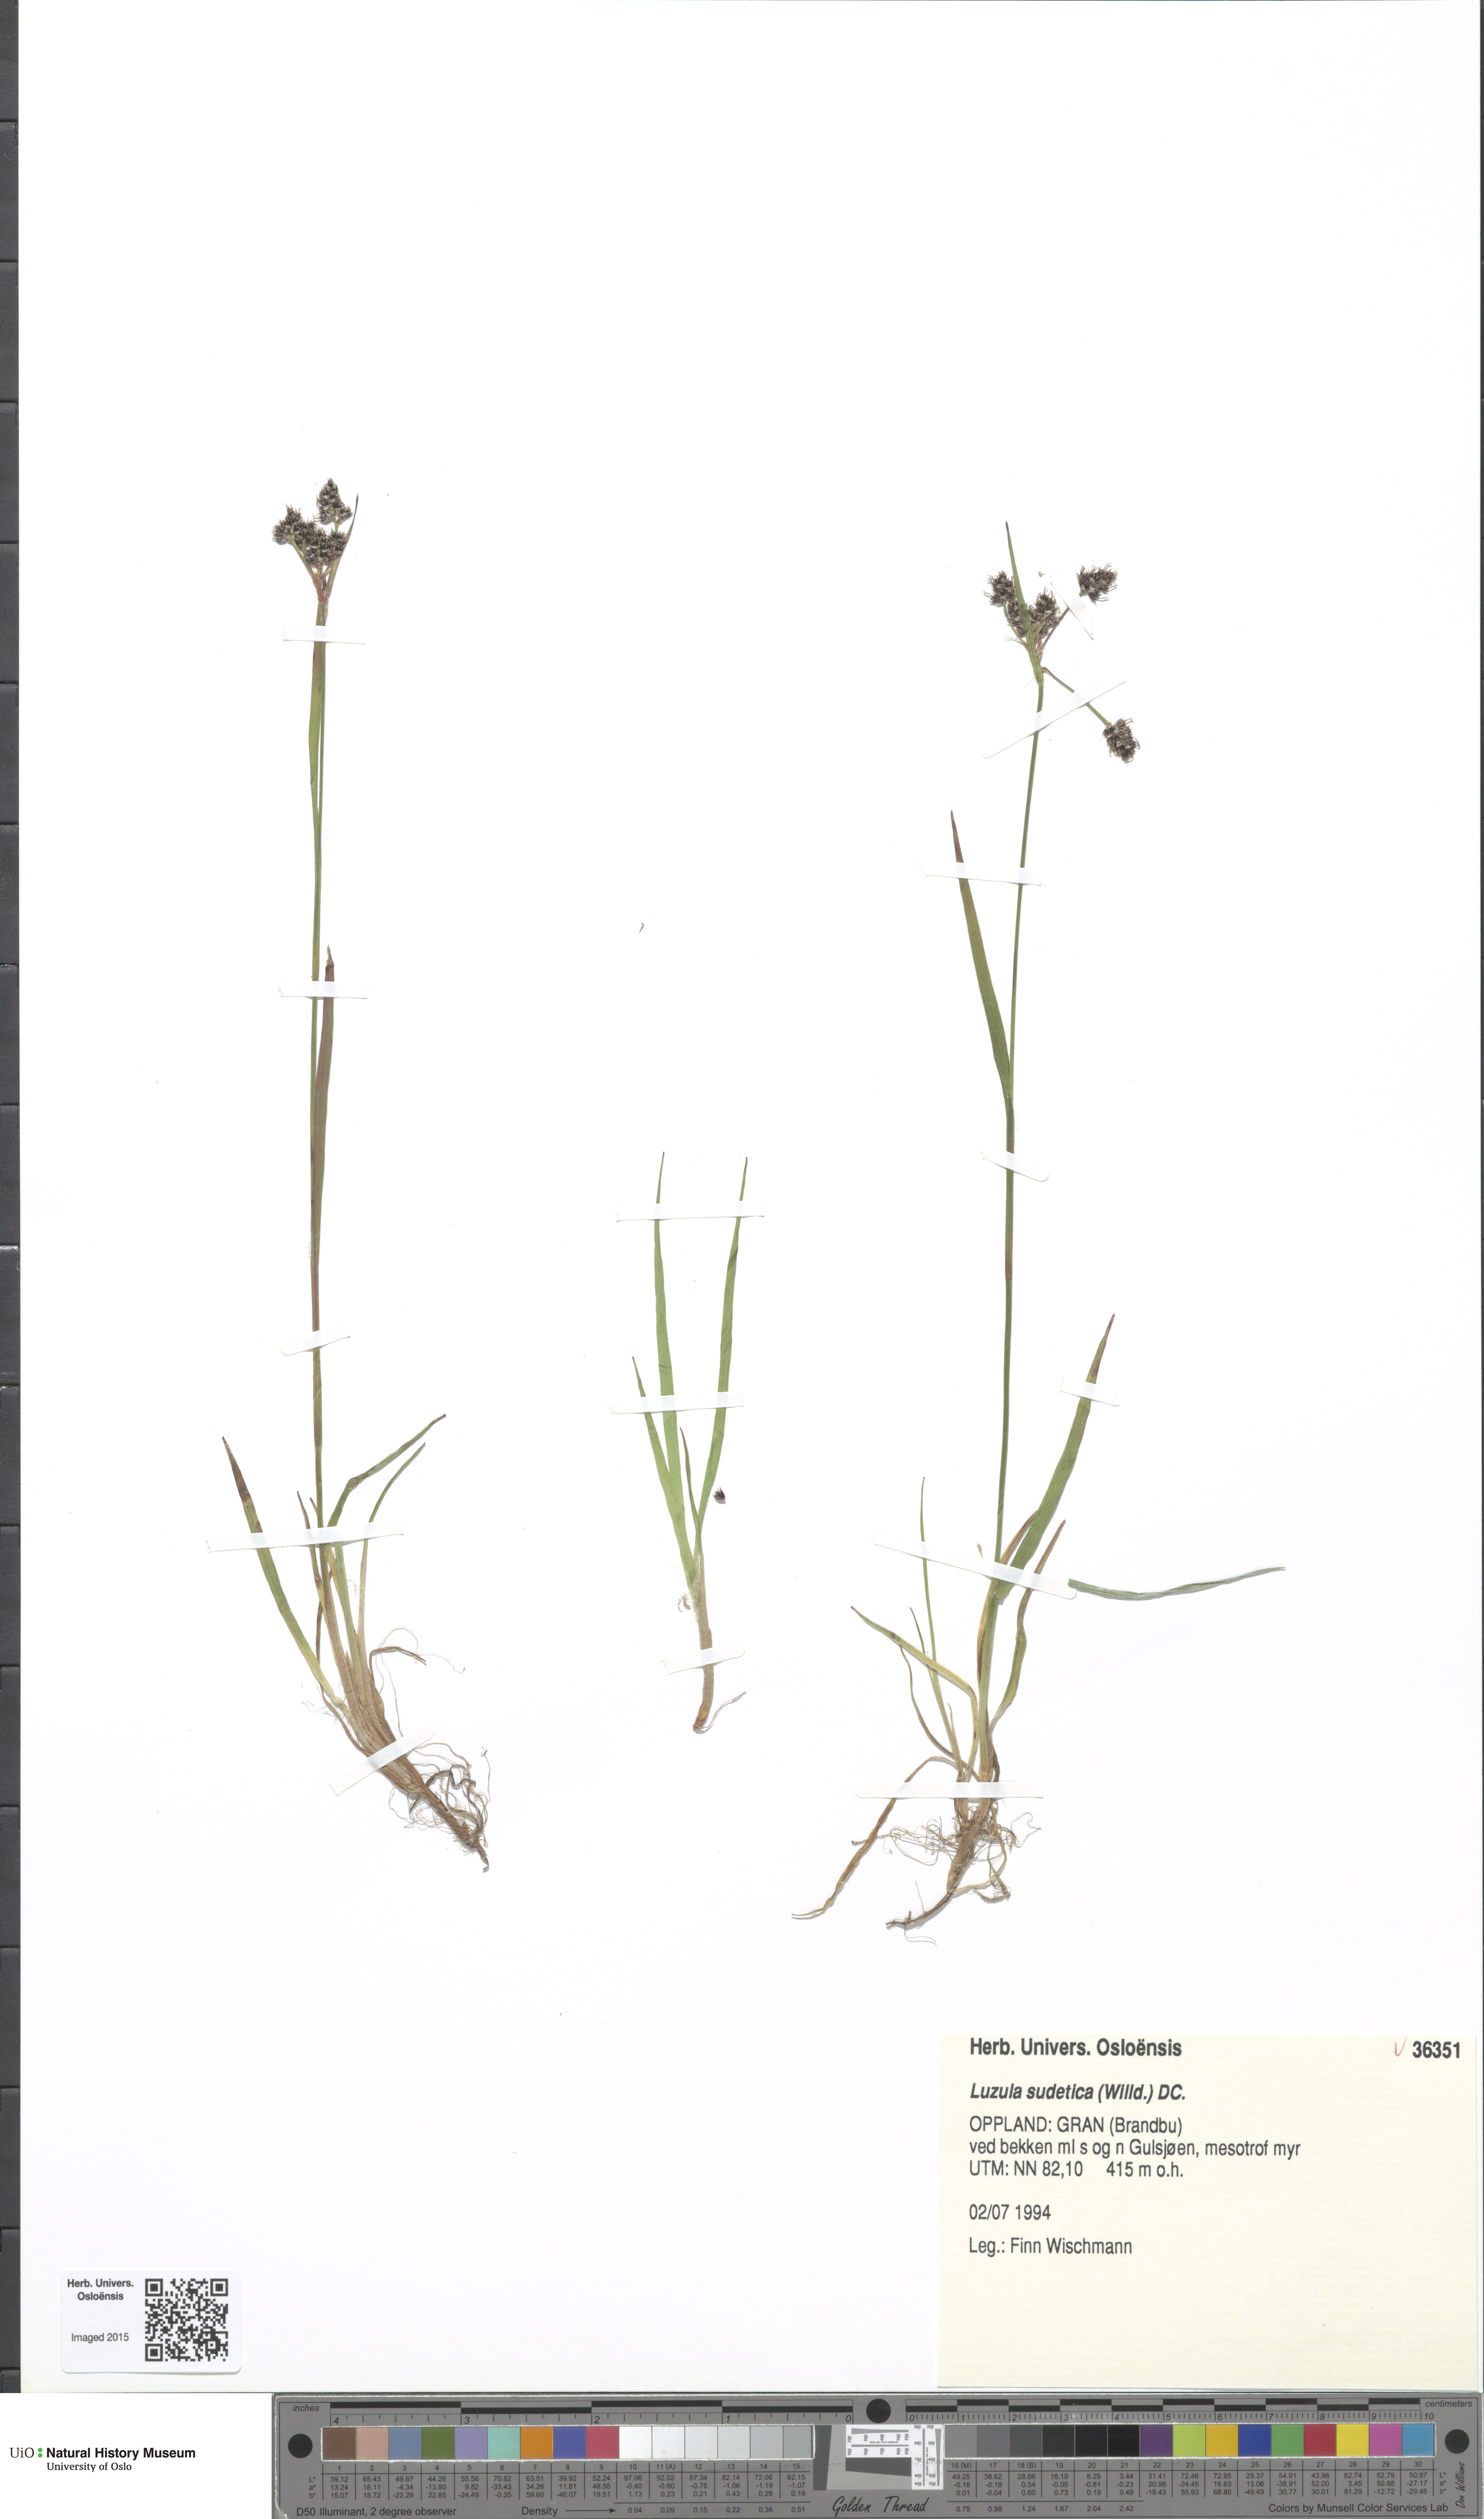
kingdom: Plantae
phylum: Tracheophyta
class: Liliopsida
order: Poales
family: Juncaceae
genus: Luzula
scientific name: Luzula sudetica
